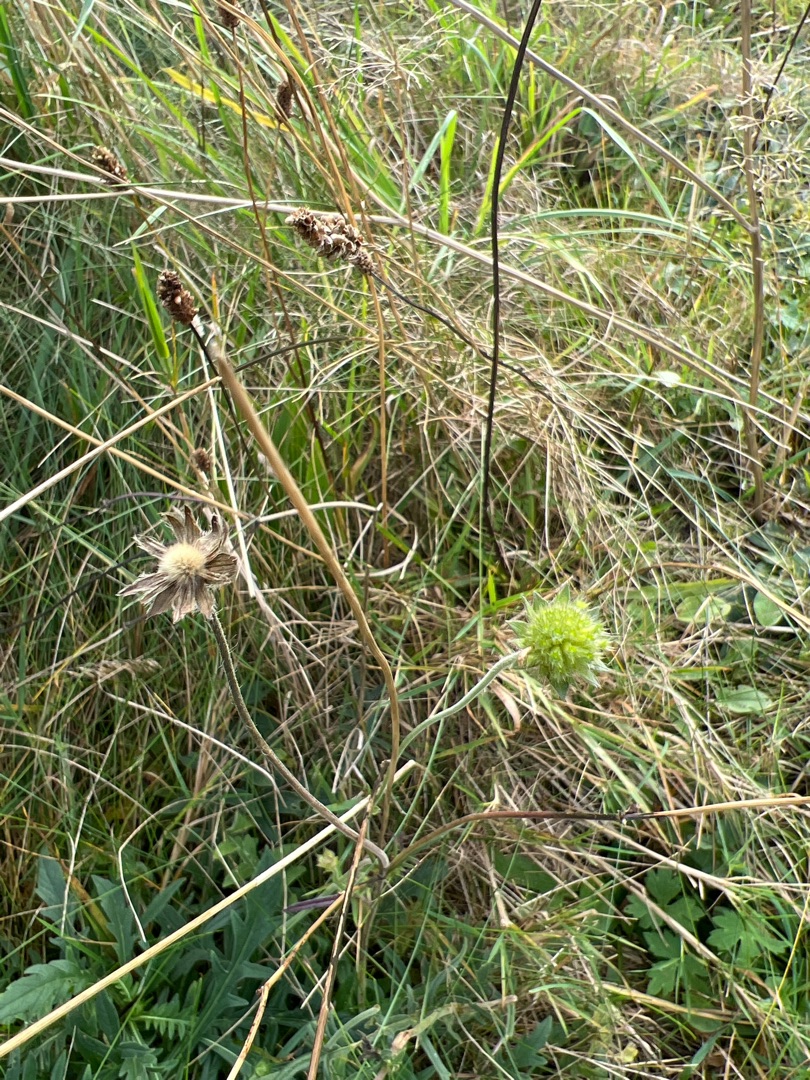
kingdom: Plantae
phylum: Tracheophyta
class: Magnoliopsida
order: Dipsacales
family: Caprifoliaceae
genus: Knautia
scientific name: Knautia arvensis
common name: Blåhat
